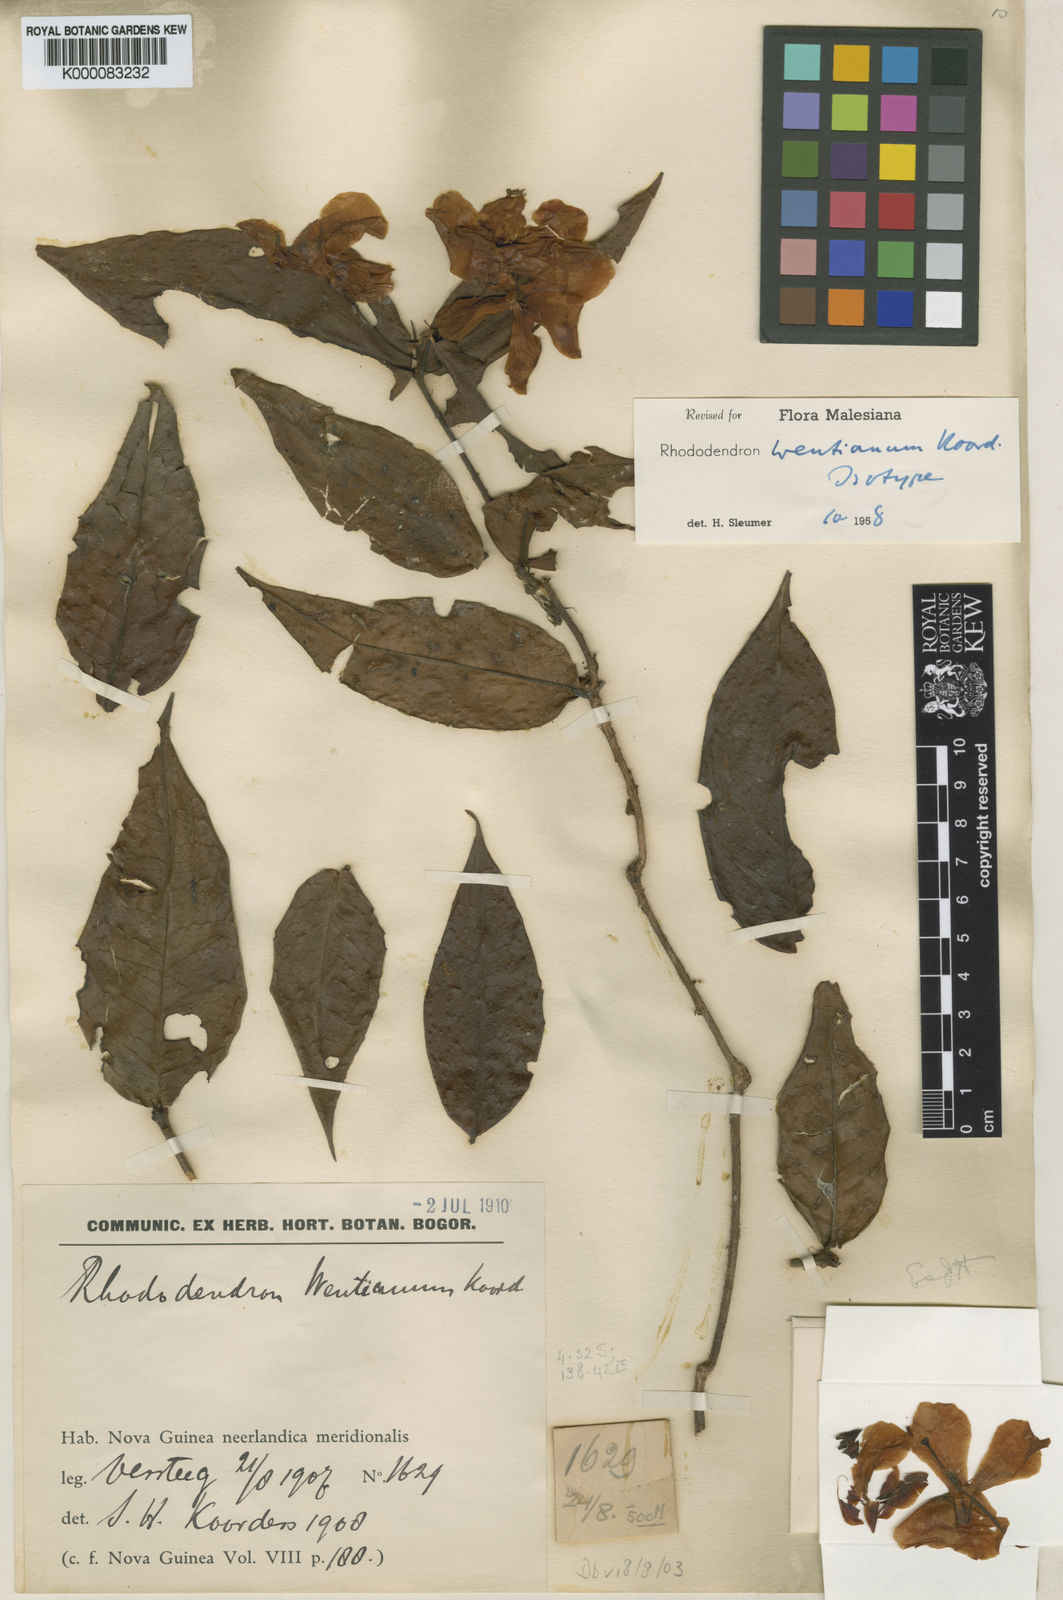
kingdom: Plantae
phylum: Tracheophyta
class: Magnoliopsida
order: Ericales
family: Ericaceae
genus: Rhododendron
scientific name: Rhododendron wentianum
